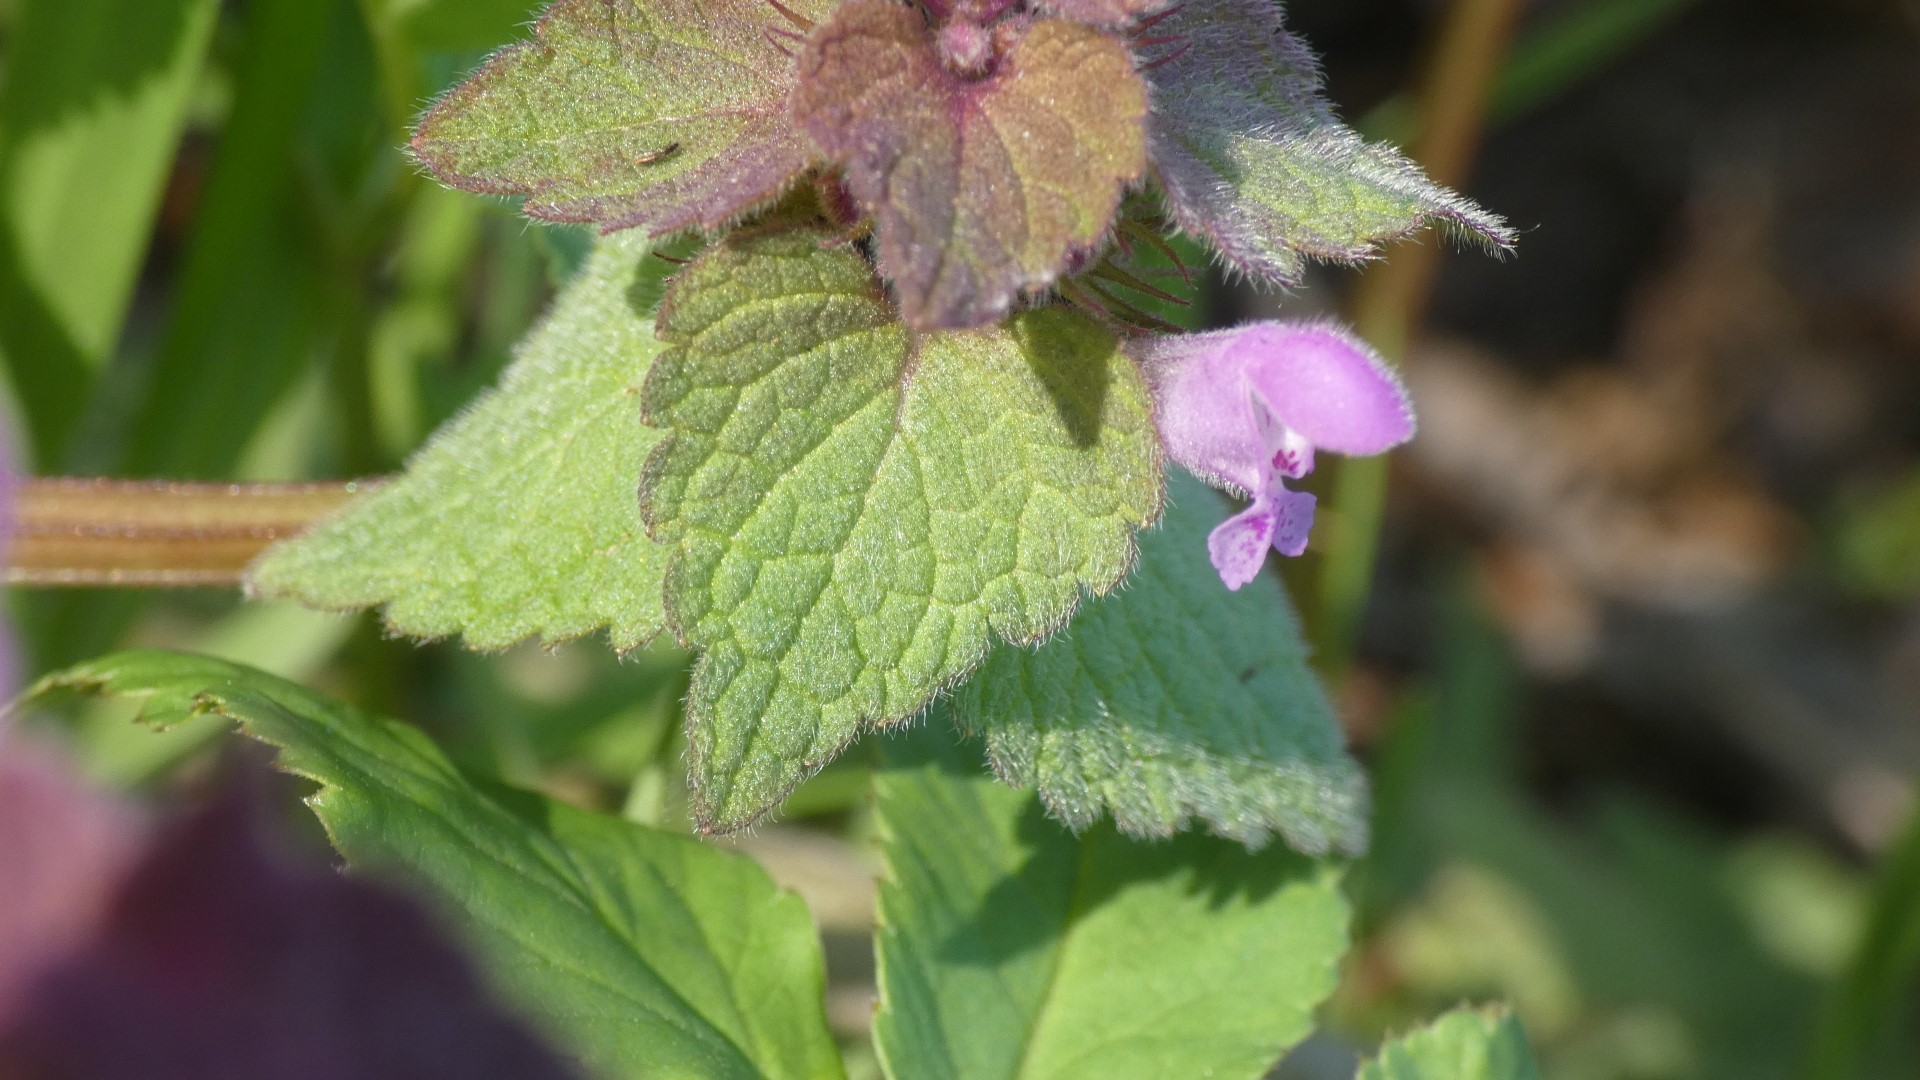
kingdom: Plantae
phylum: Tracheophyta
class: Magnoliopsida
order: Lamiales
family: Lamiaceae
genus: Lamium
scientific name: Lamium purpureum
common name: Rød tvetand
